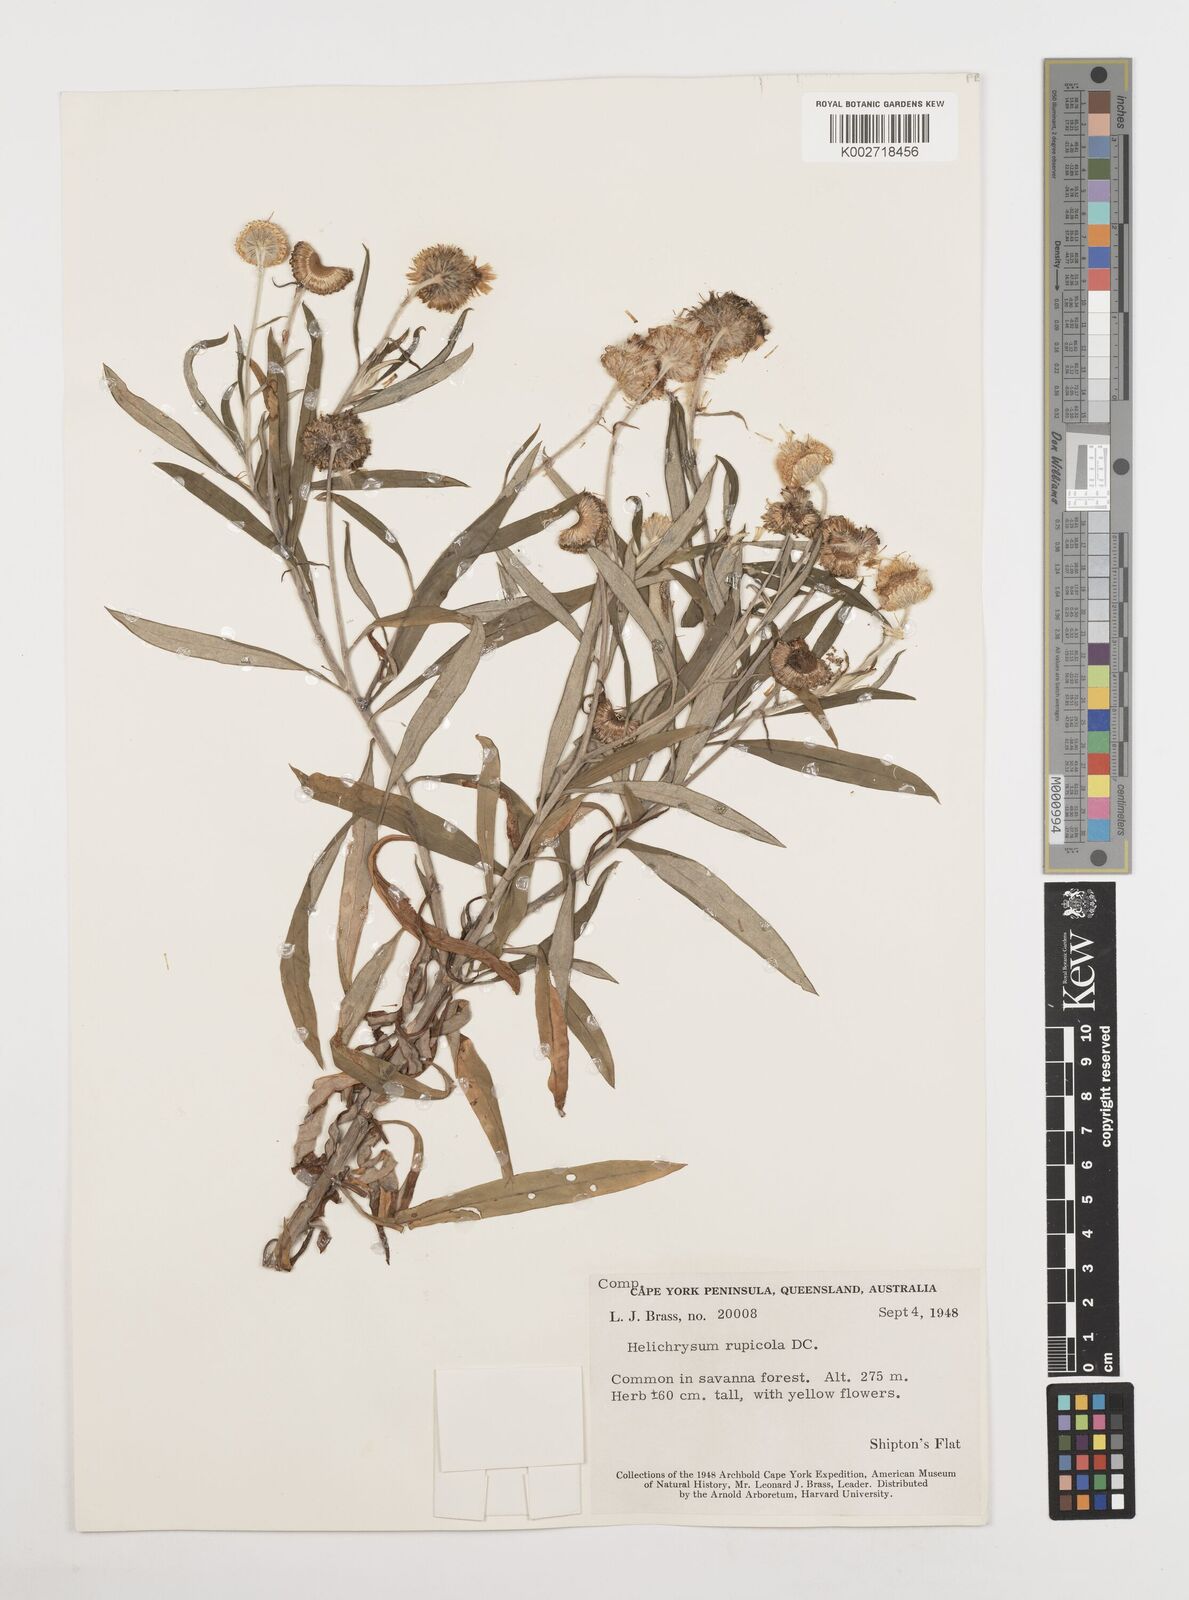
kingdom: Plantae
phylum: Tracheophyta
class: Magnoliopsida
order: Asterales
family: Asteraceae
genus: Coronidium
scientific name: Coronidium rupicola
